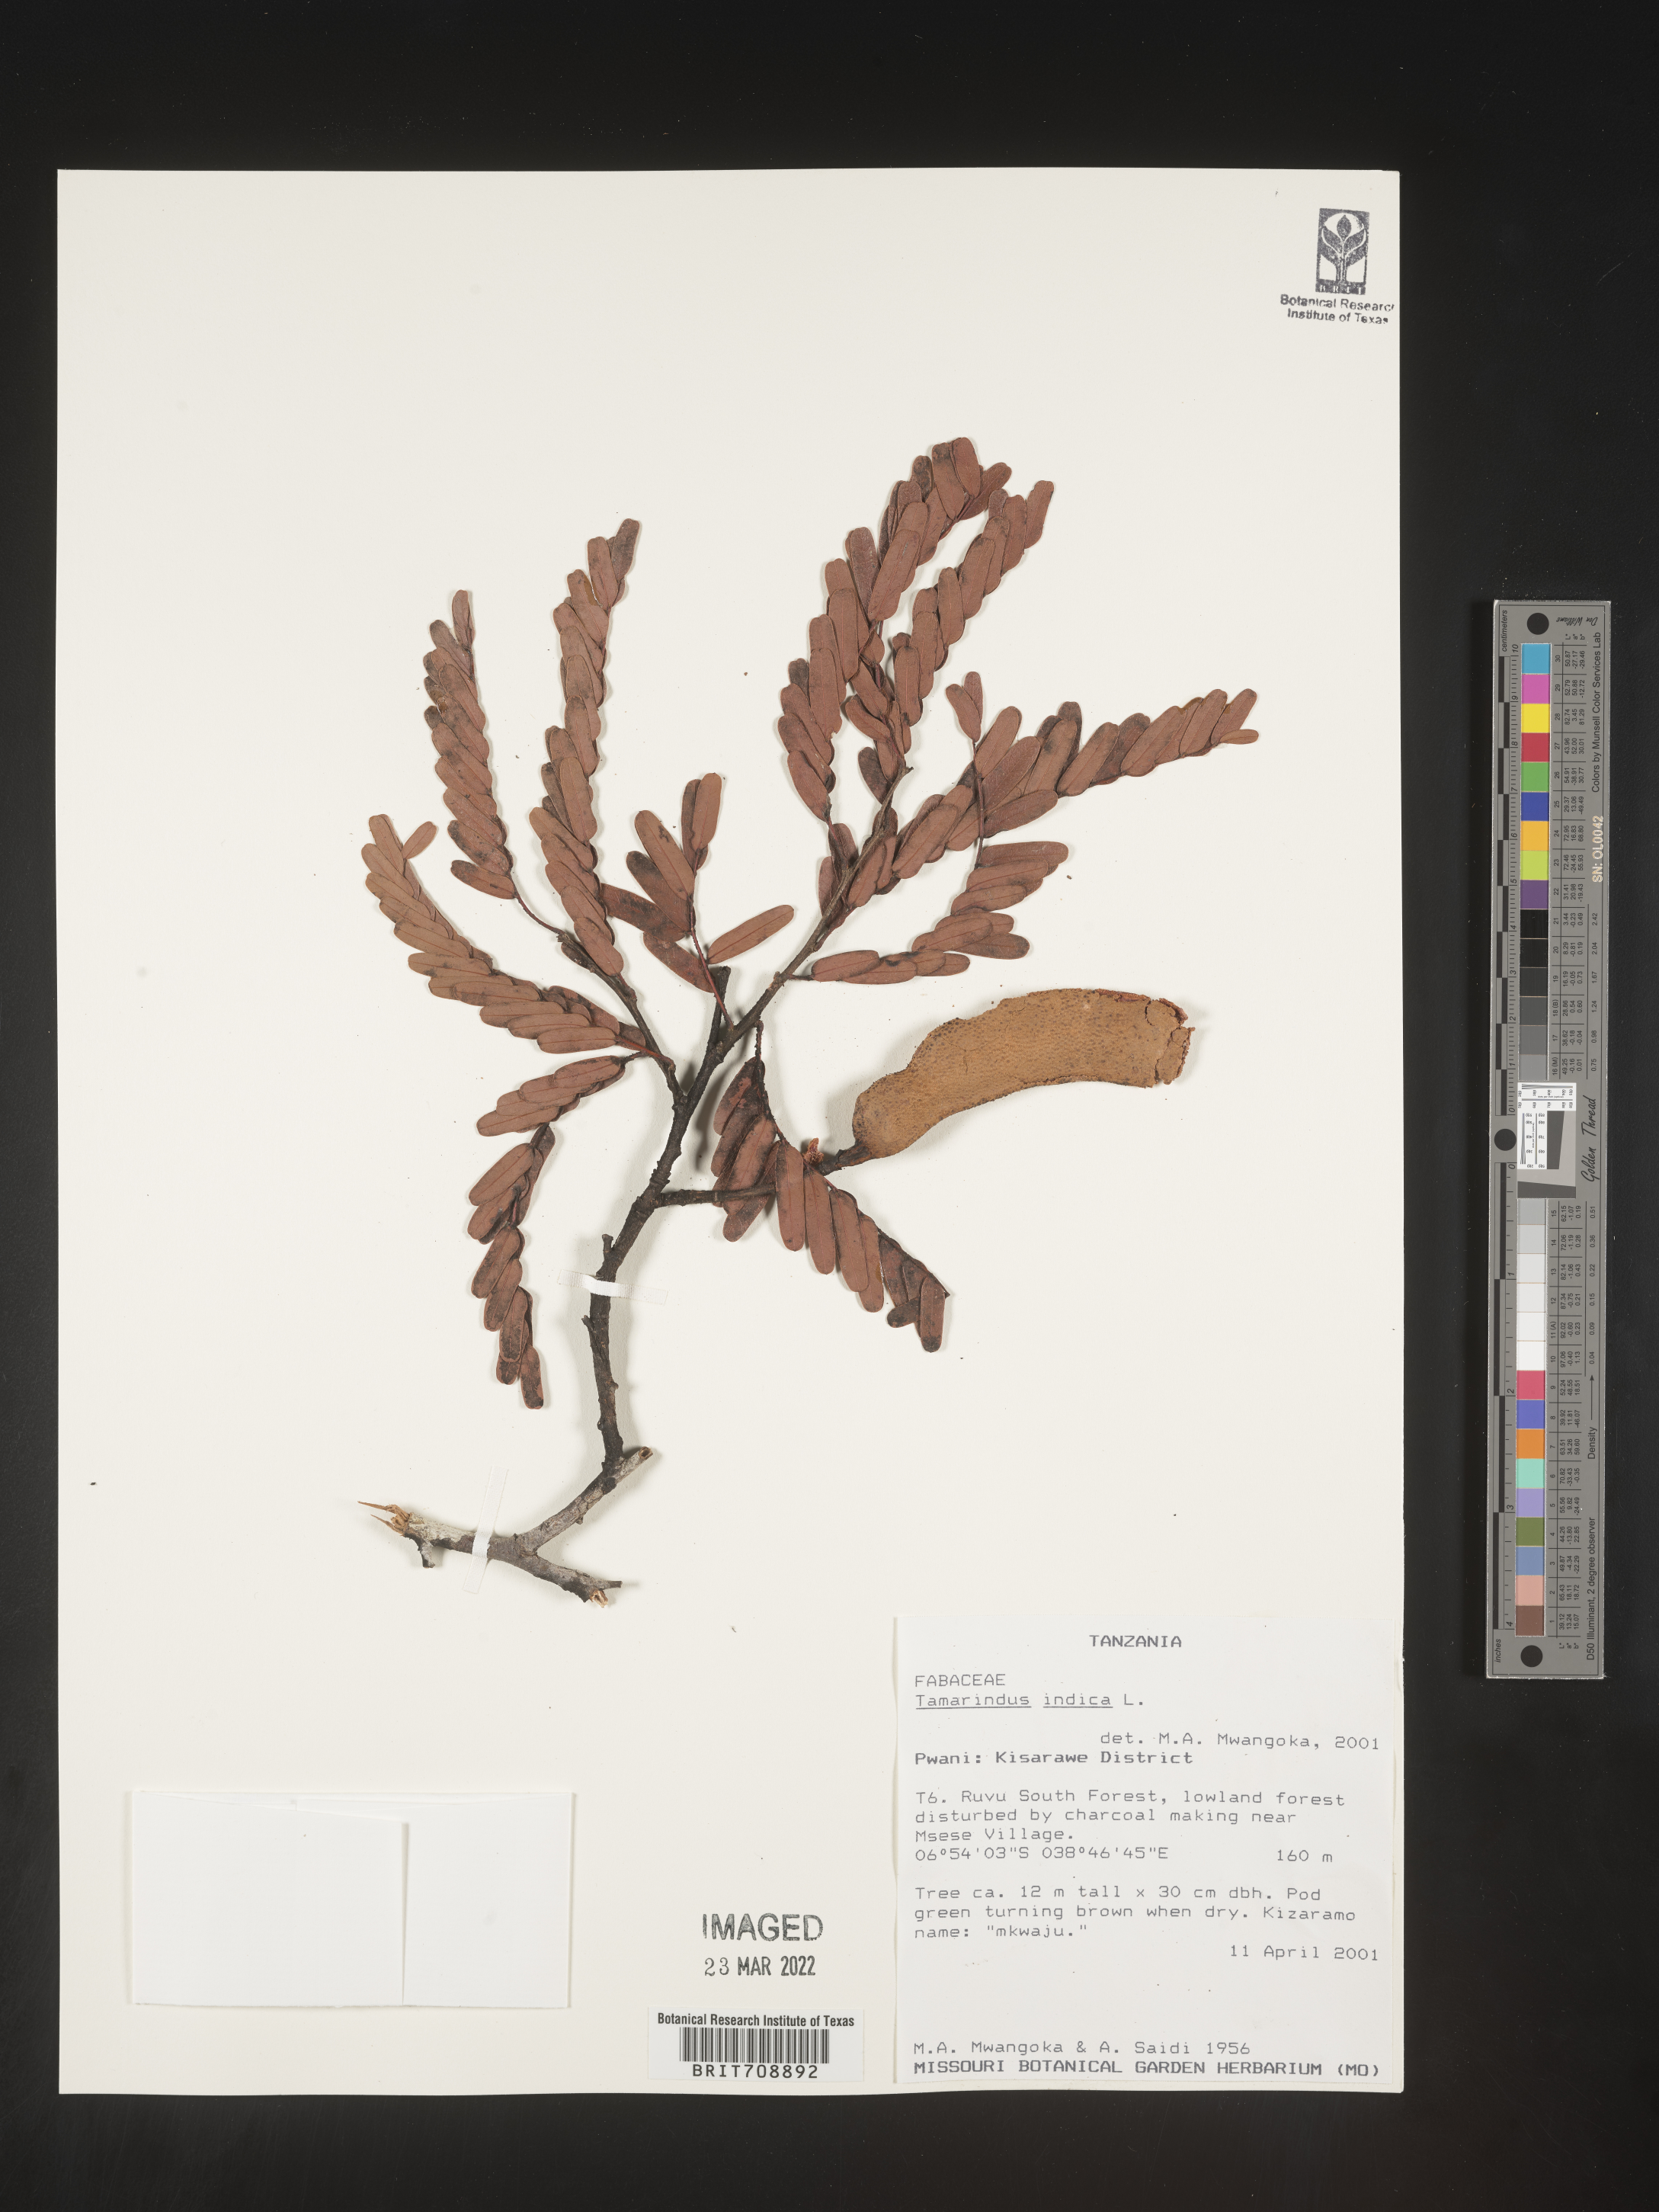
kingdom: Plantae
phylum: Tracheophyta
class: Magnoliopsida
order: Fabales
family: Fabaceae
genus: Tamarindus
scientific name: Tamarindus
